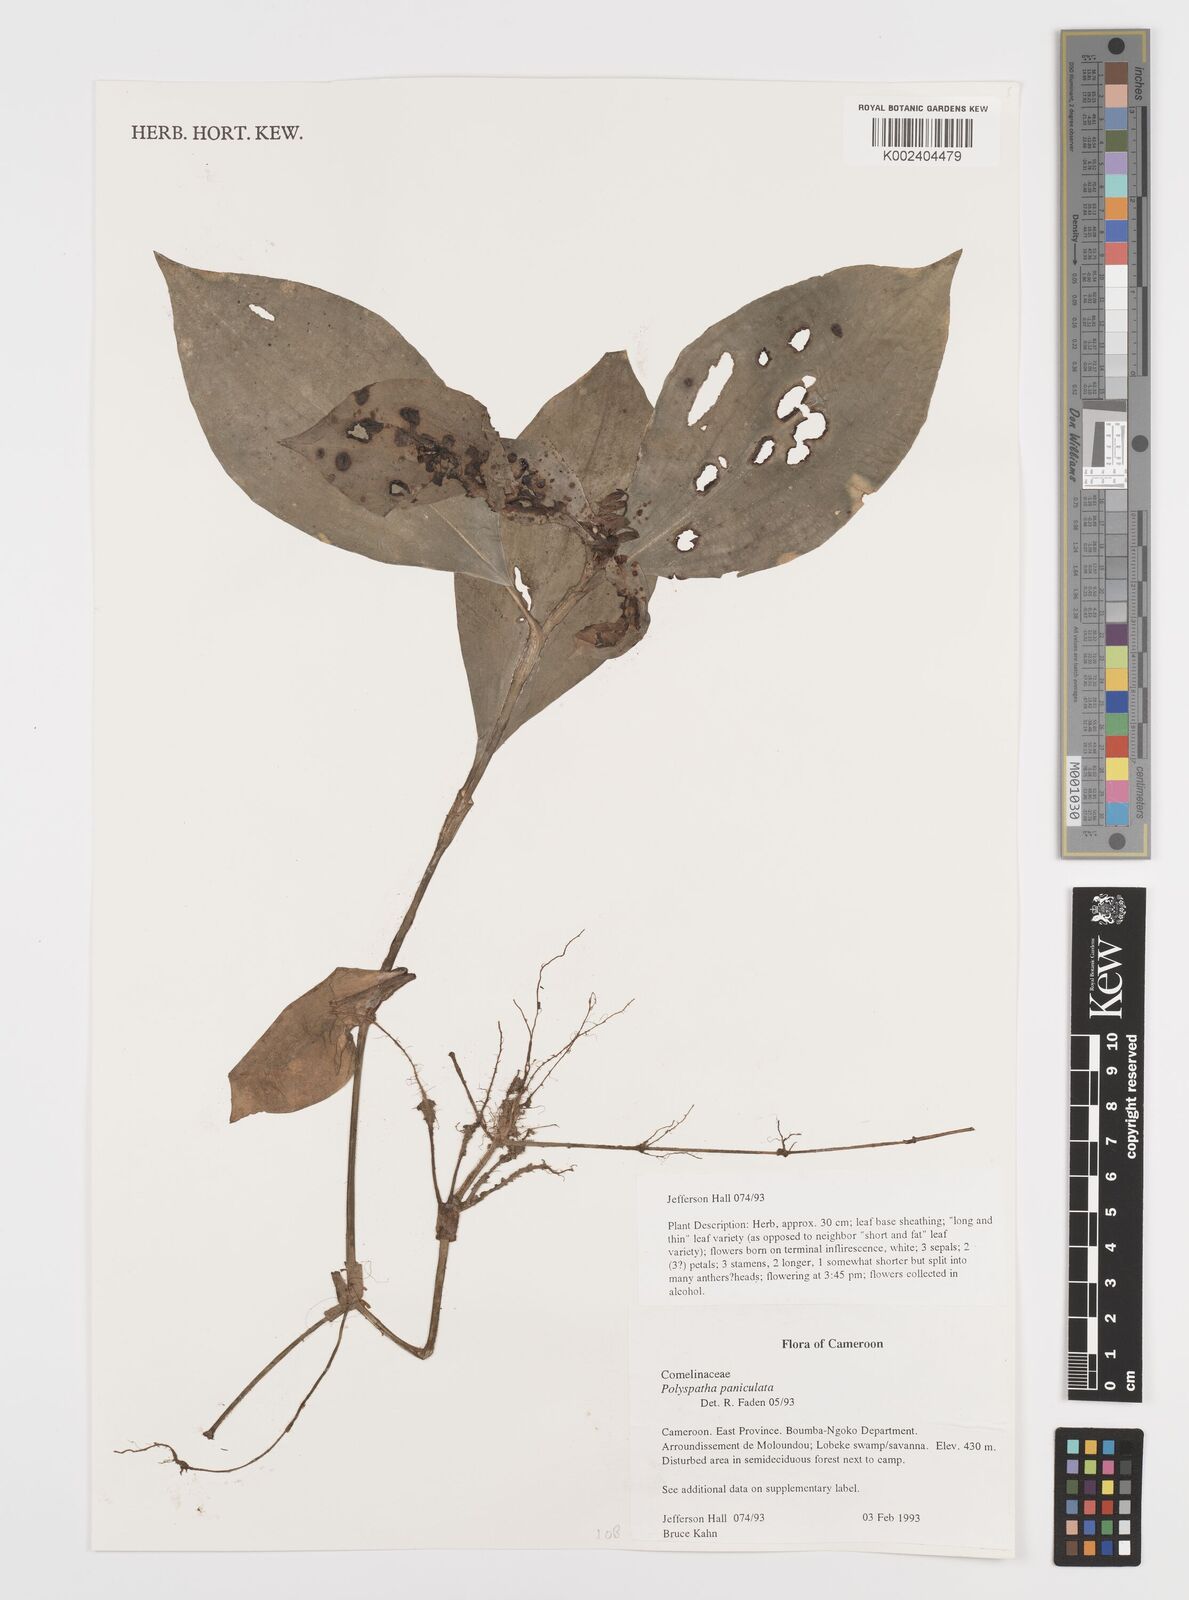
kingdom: Plantae
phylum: Tracheophyta
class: Liliopsida
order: Commelinales
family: Commelinaceae
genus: Polyspatha
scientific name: Polyspatha paniculata
